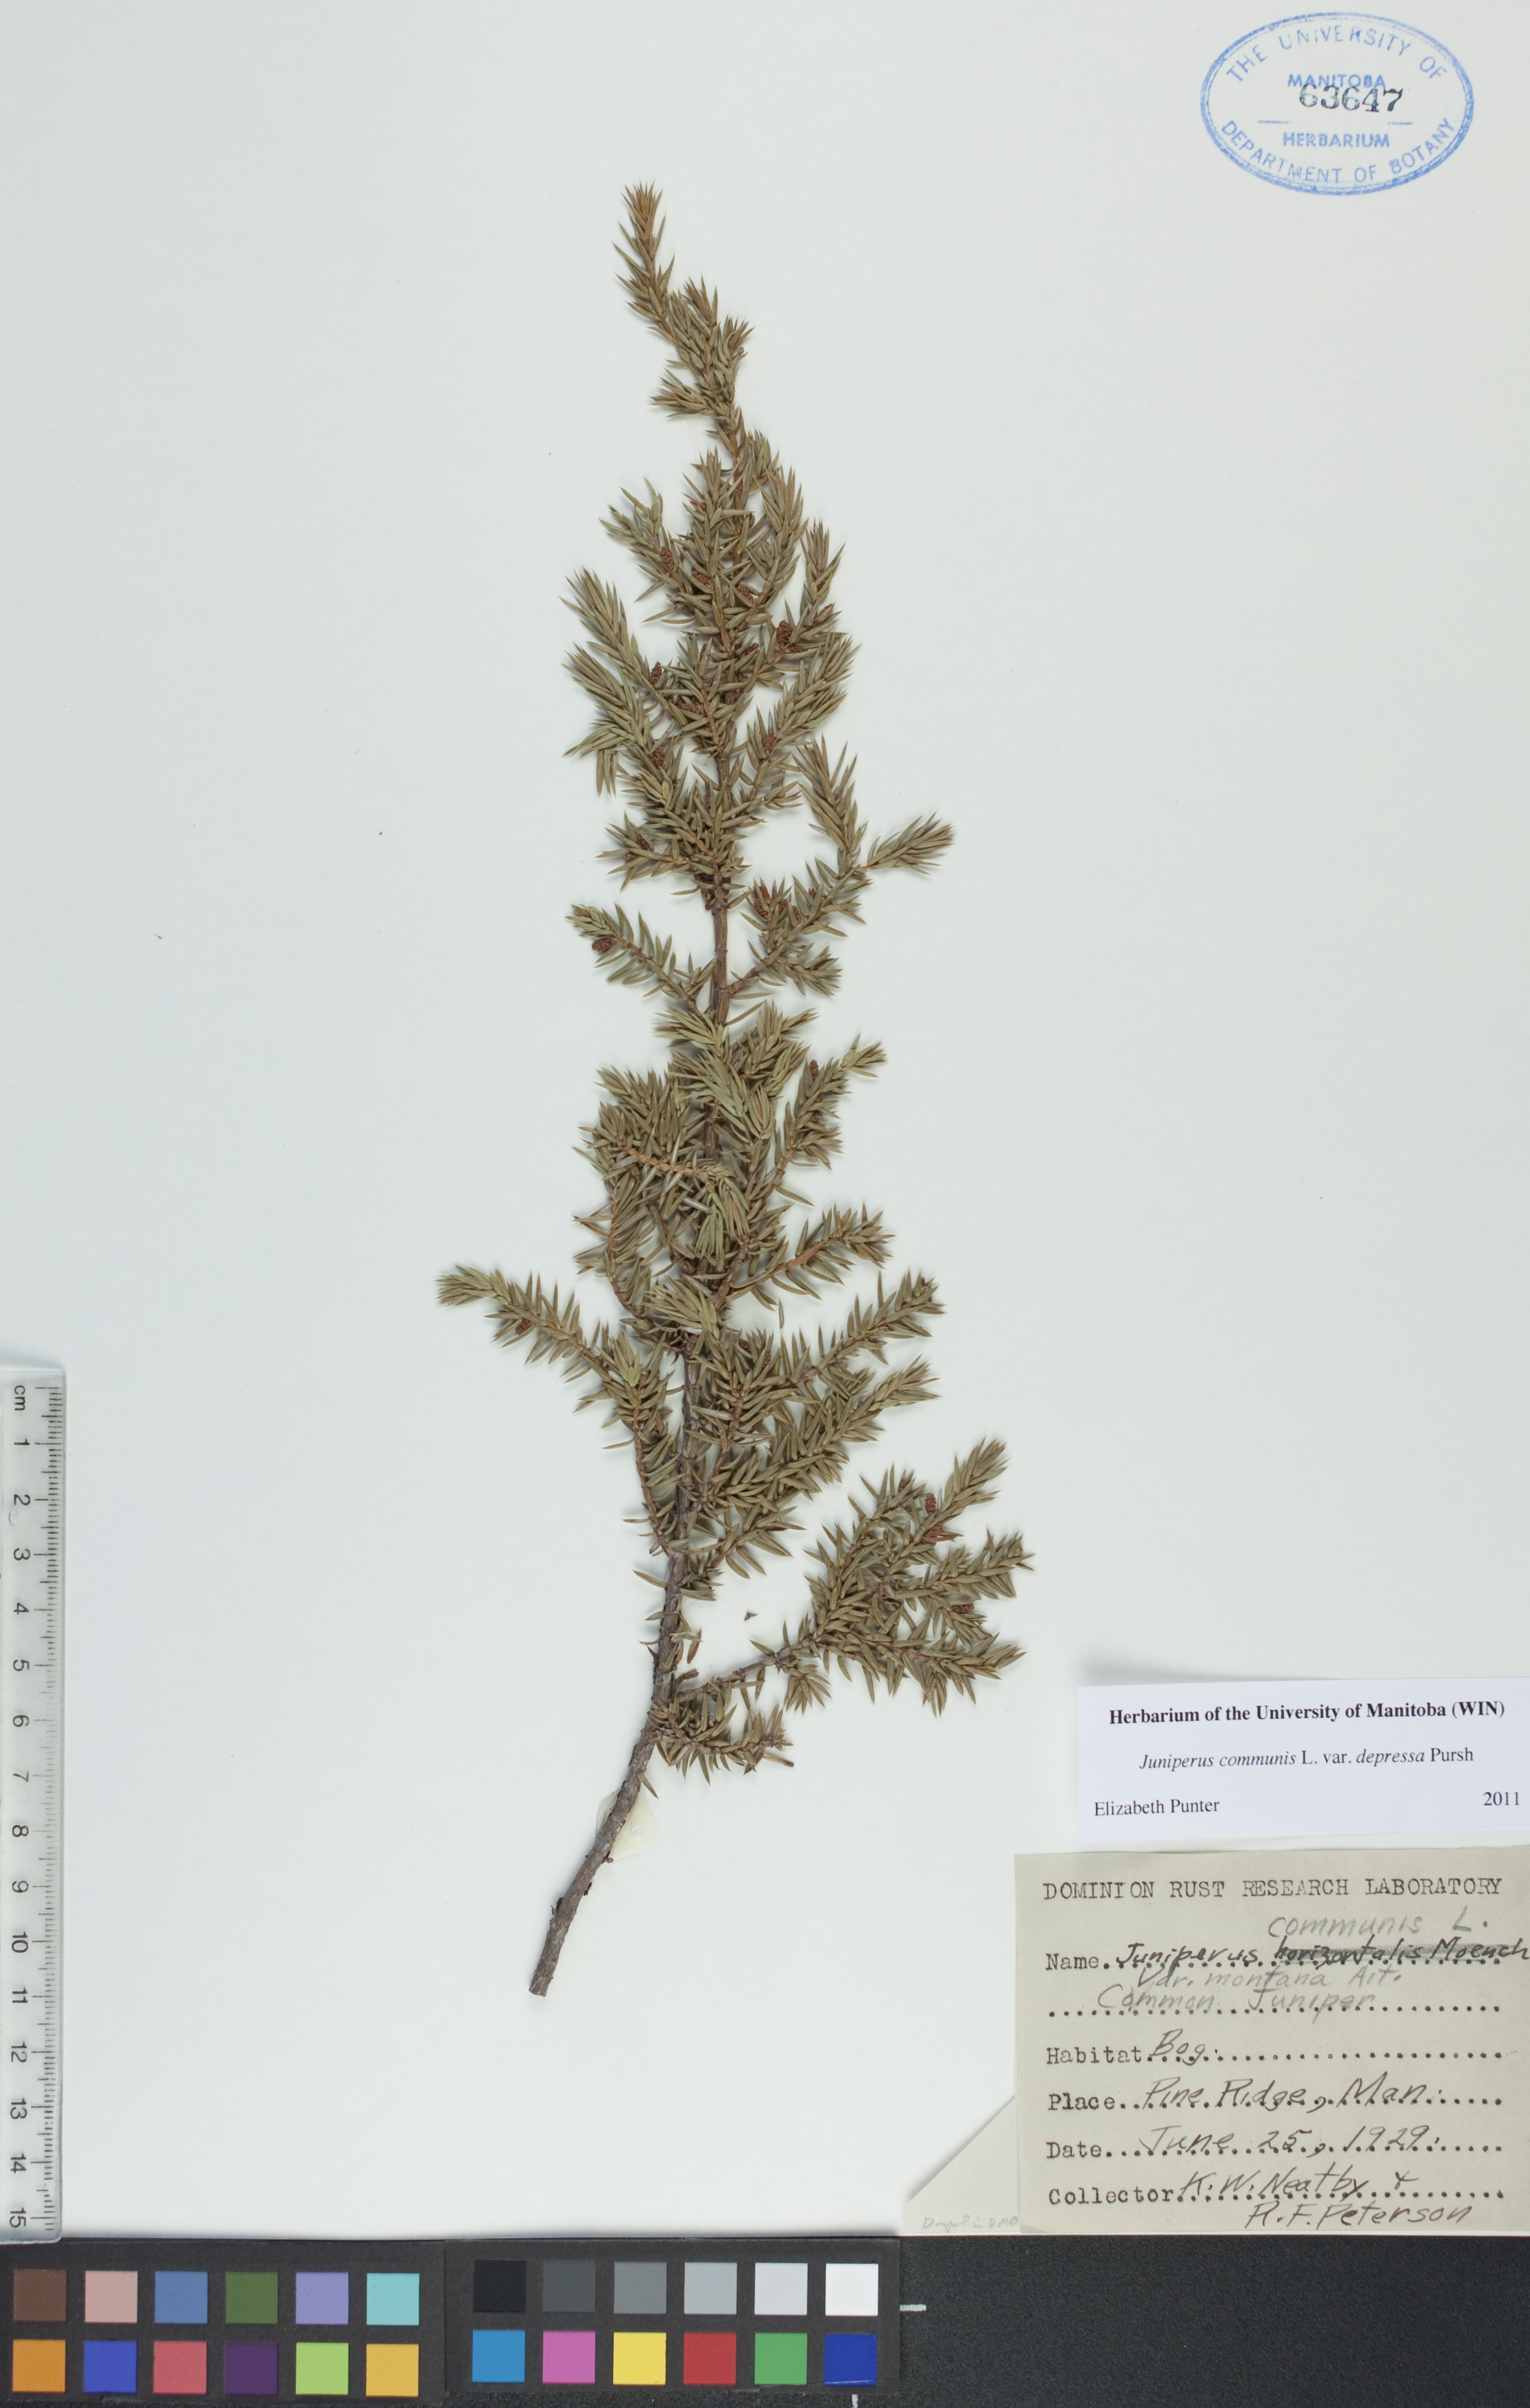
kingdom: Plantae
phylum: Tracheophyta
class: Pinopsida
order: Pinales
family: Cupressaceae
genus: Juniperus
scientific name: Juniperus communis
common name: Common juniper
